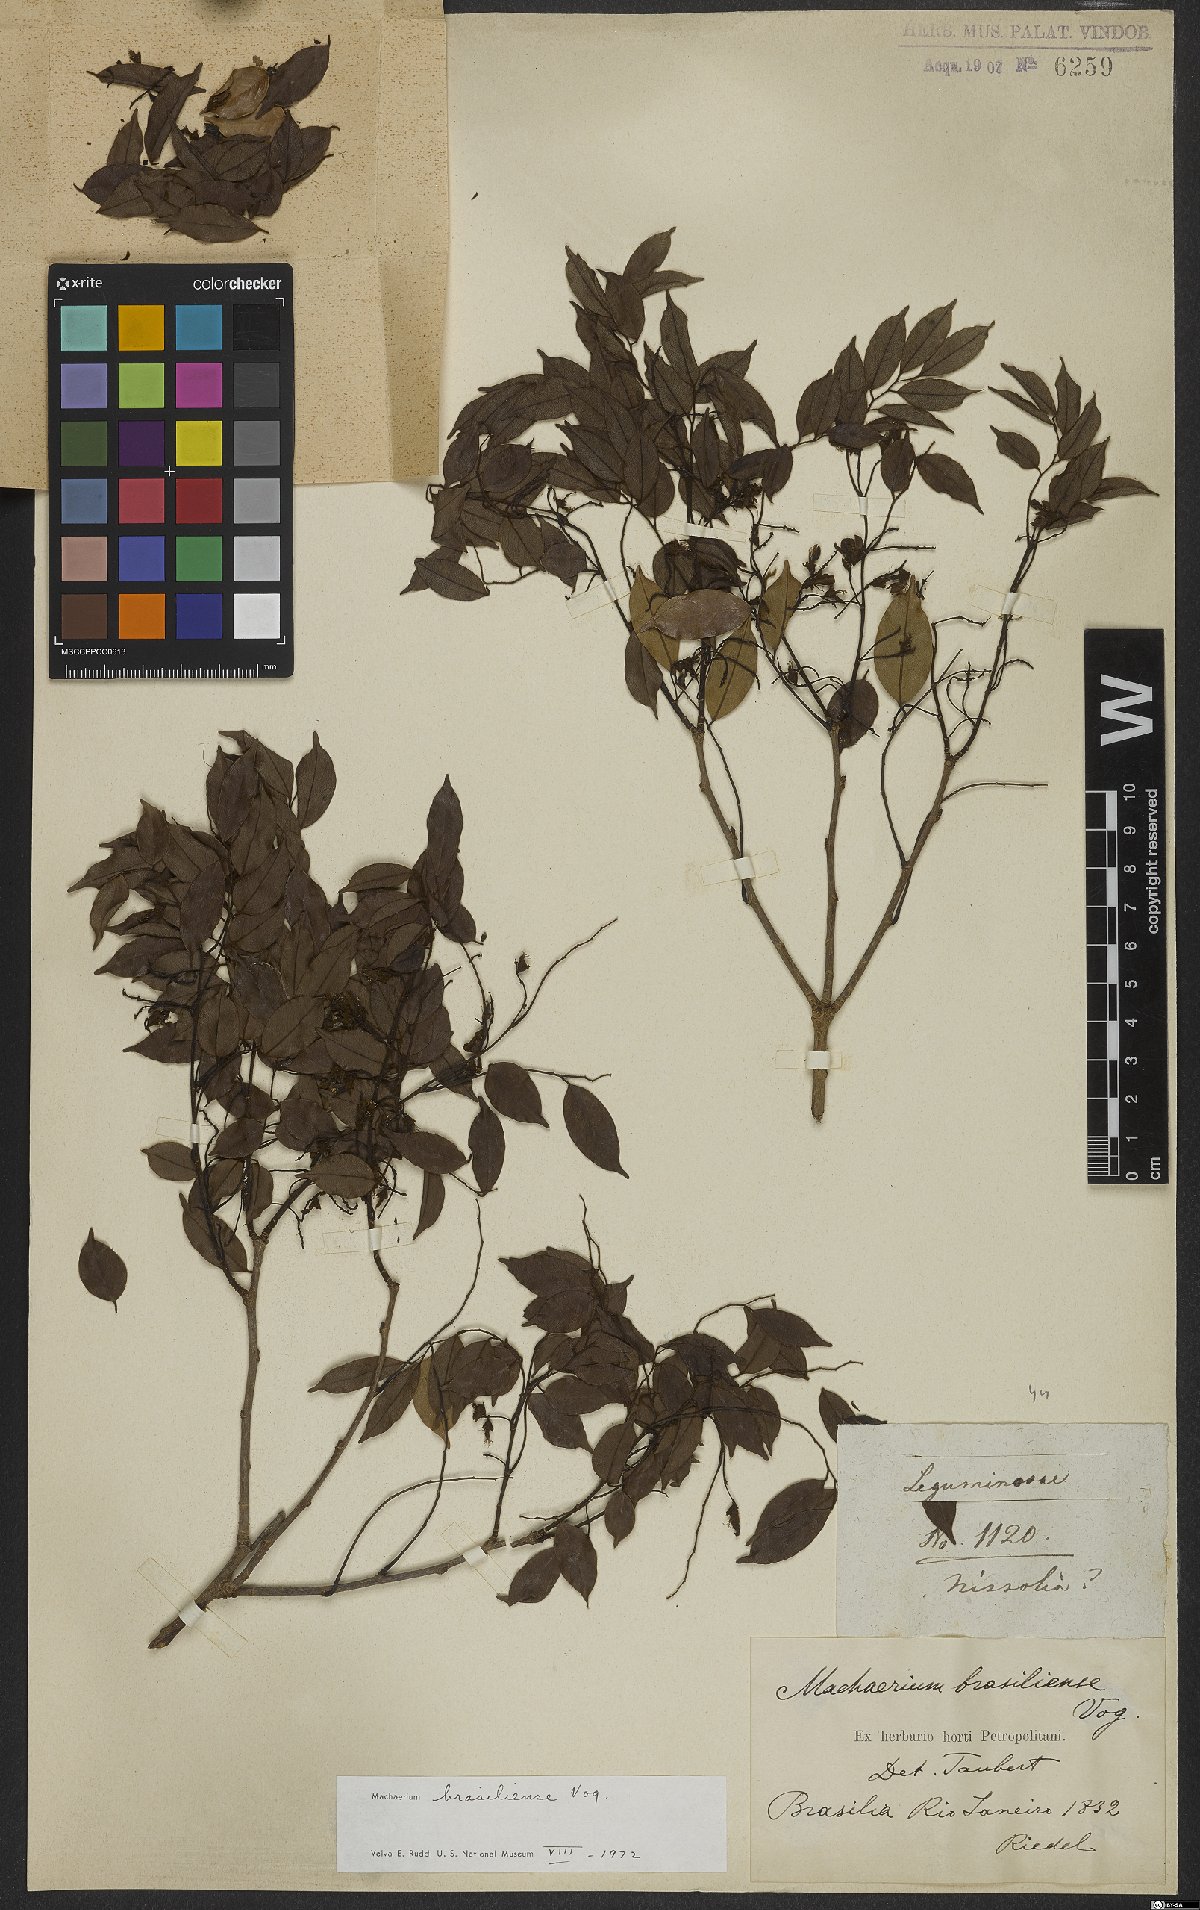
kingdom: Plantae
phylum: Tracheophyta
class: Magnoliopsida
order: Fabales
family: Fabaceae
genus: Machaerium
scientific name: Machaerium brasiliense
